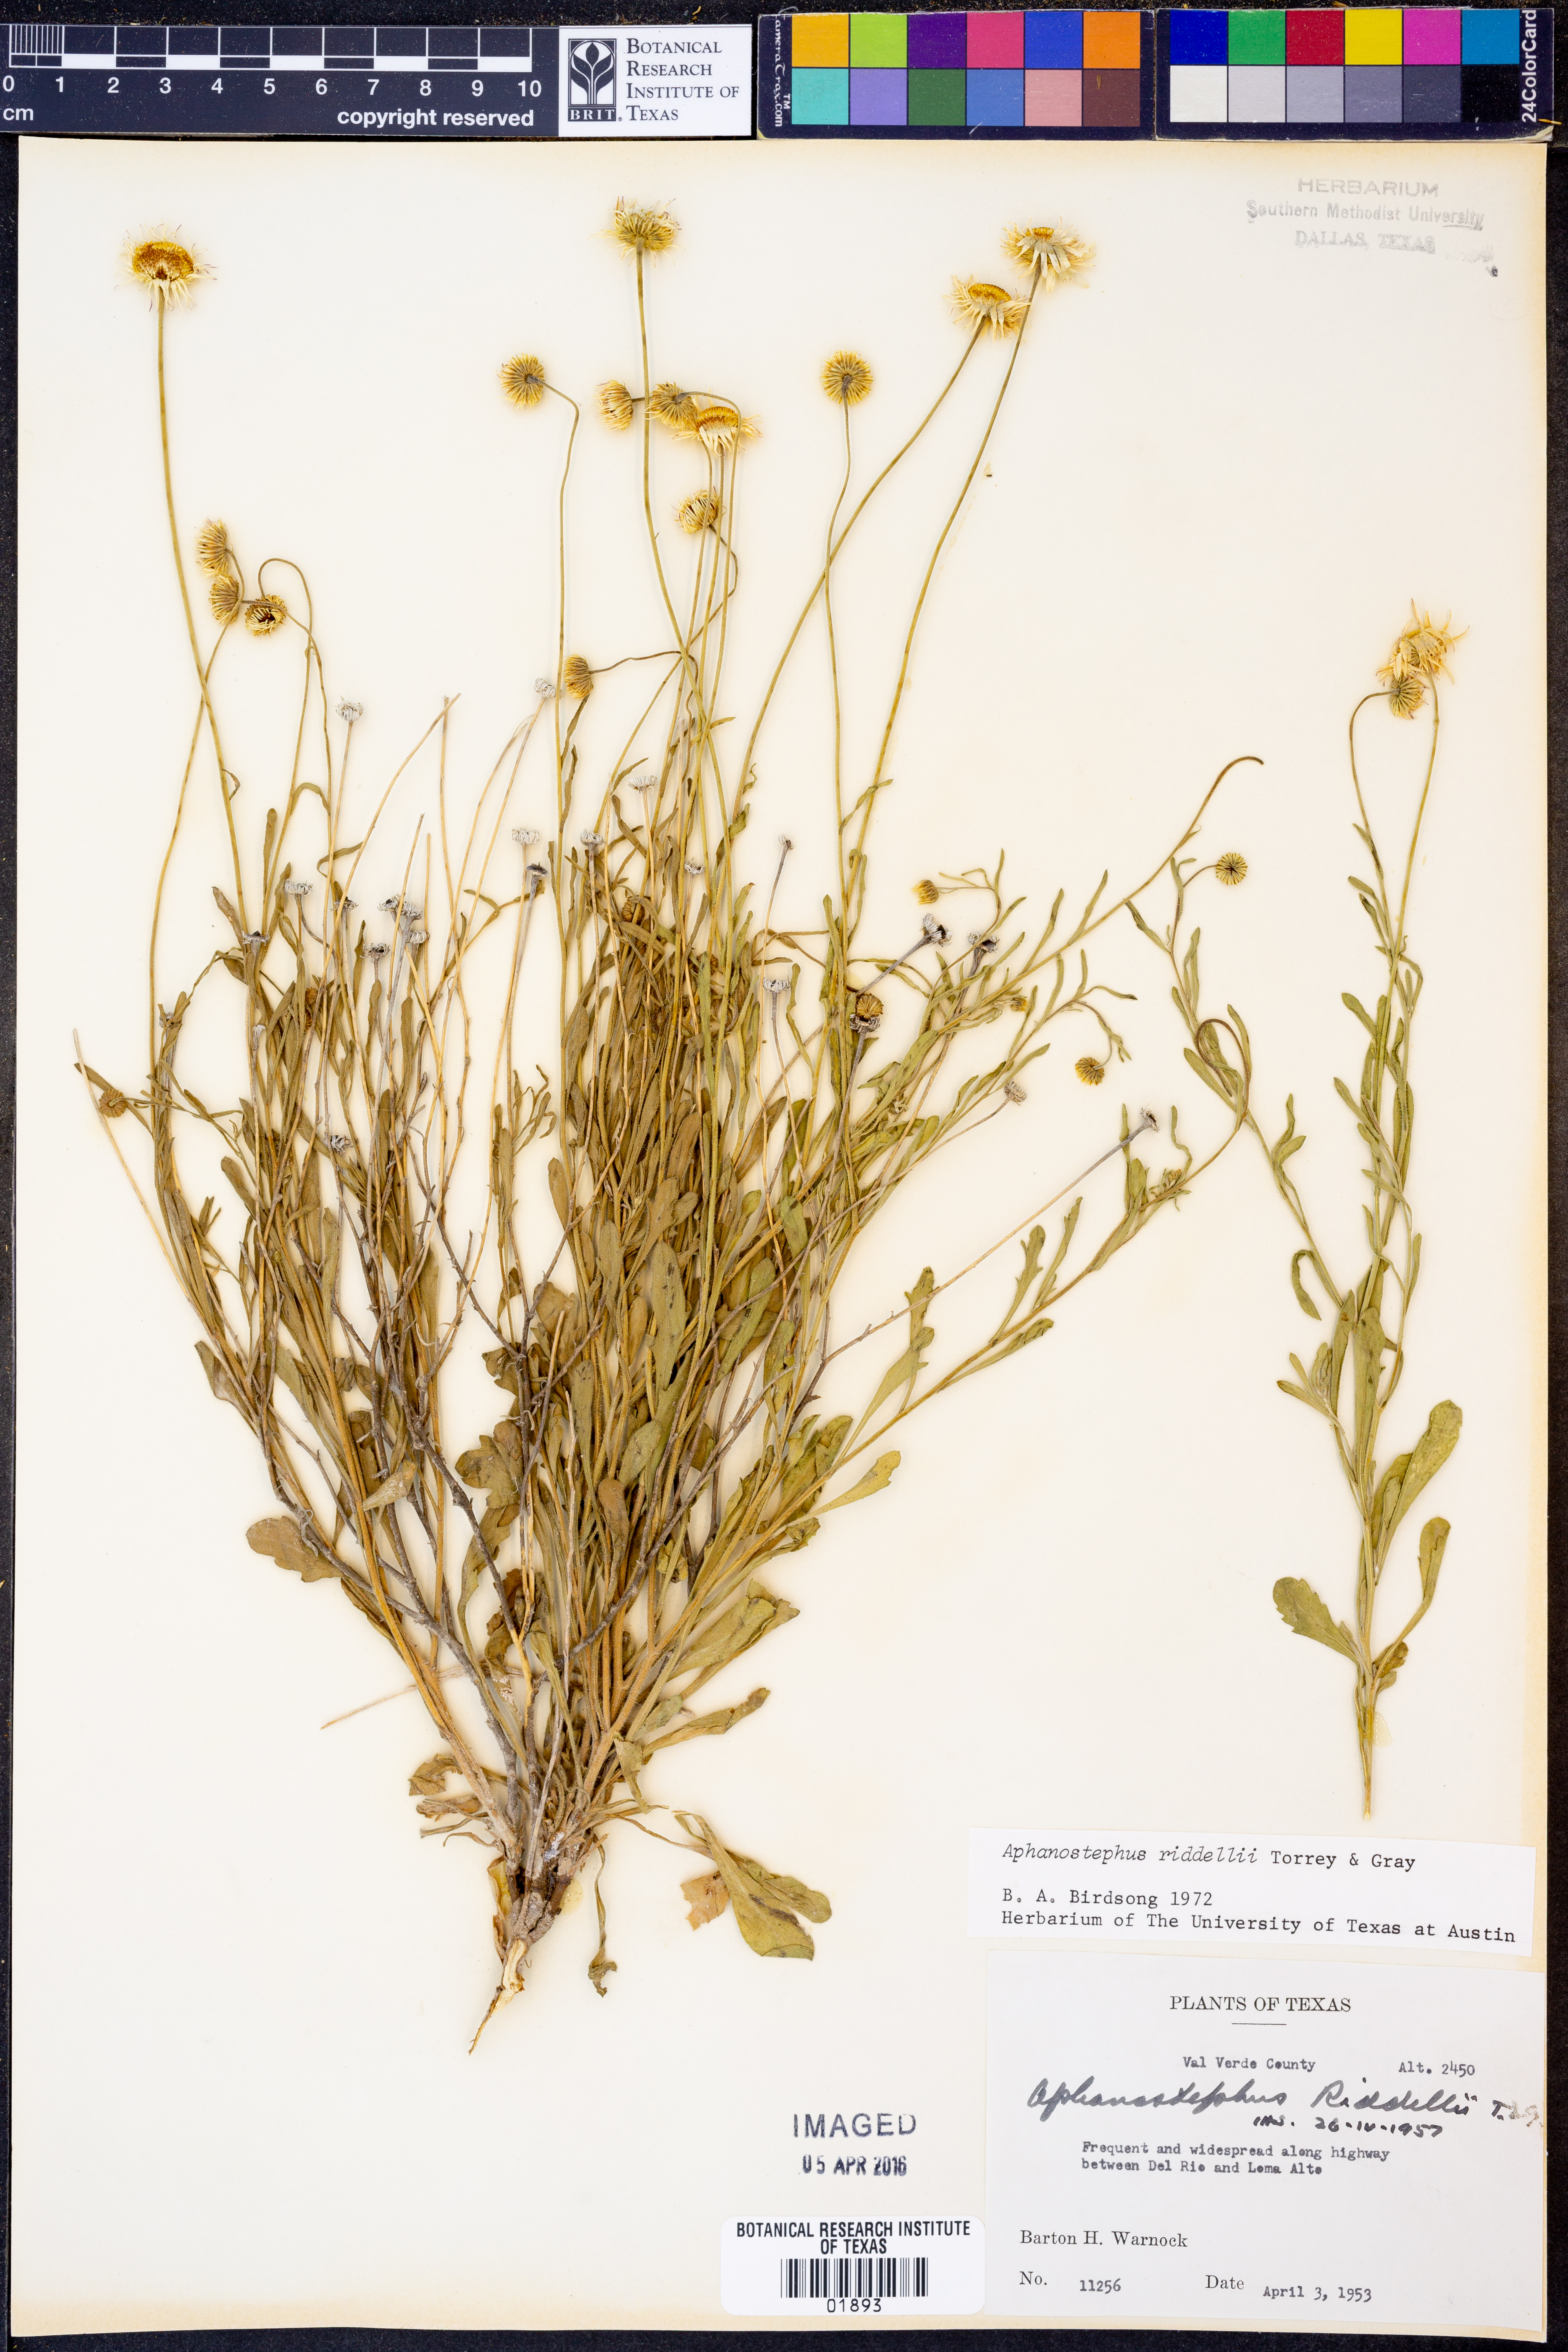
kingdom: Plantae
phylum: Tracheophyta
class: Magnoliopsida
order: Asterales
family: Asteraceae
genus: Aphanostephus
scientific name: Aphanostephus riddellii
